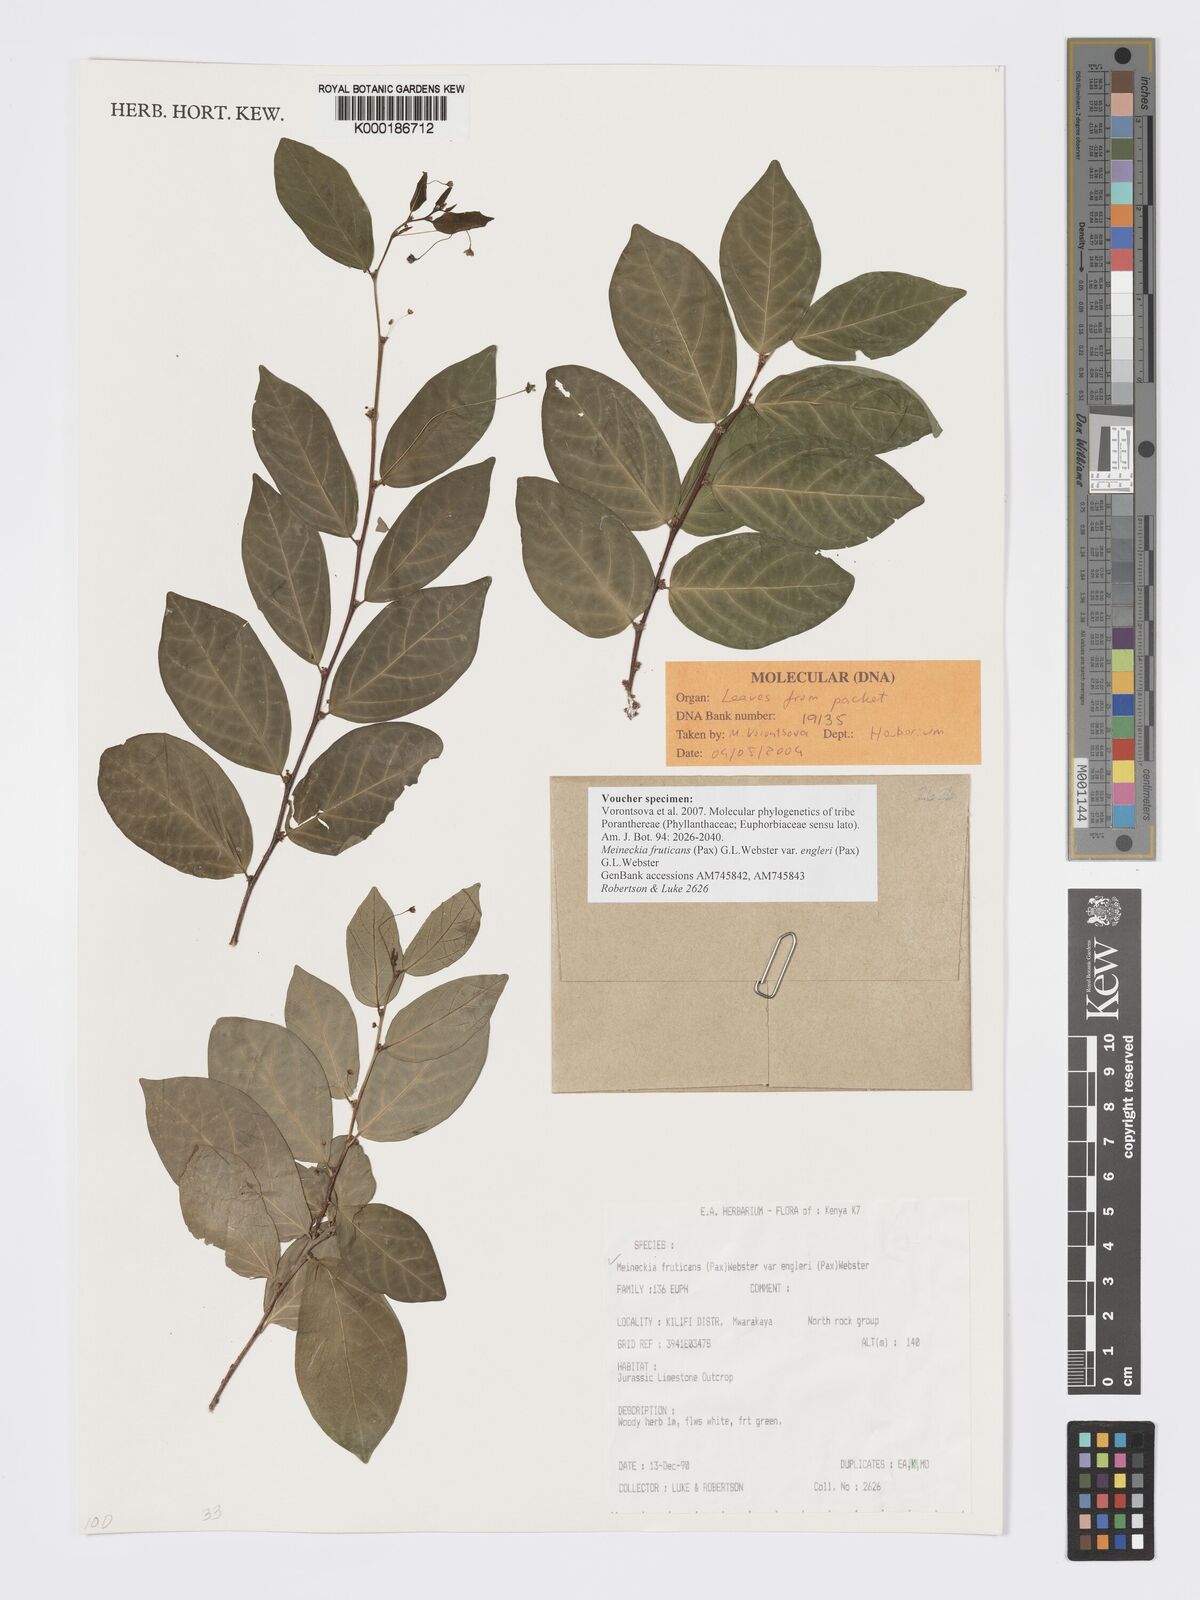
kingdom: Plantae
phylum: Tracheophyta
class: Magnoliopsida
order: Malpighiales
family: Phyllanthaceae
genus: Meineckia
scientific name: Meineckia fruticans
